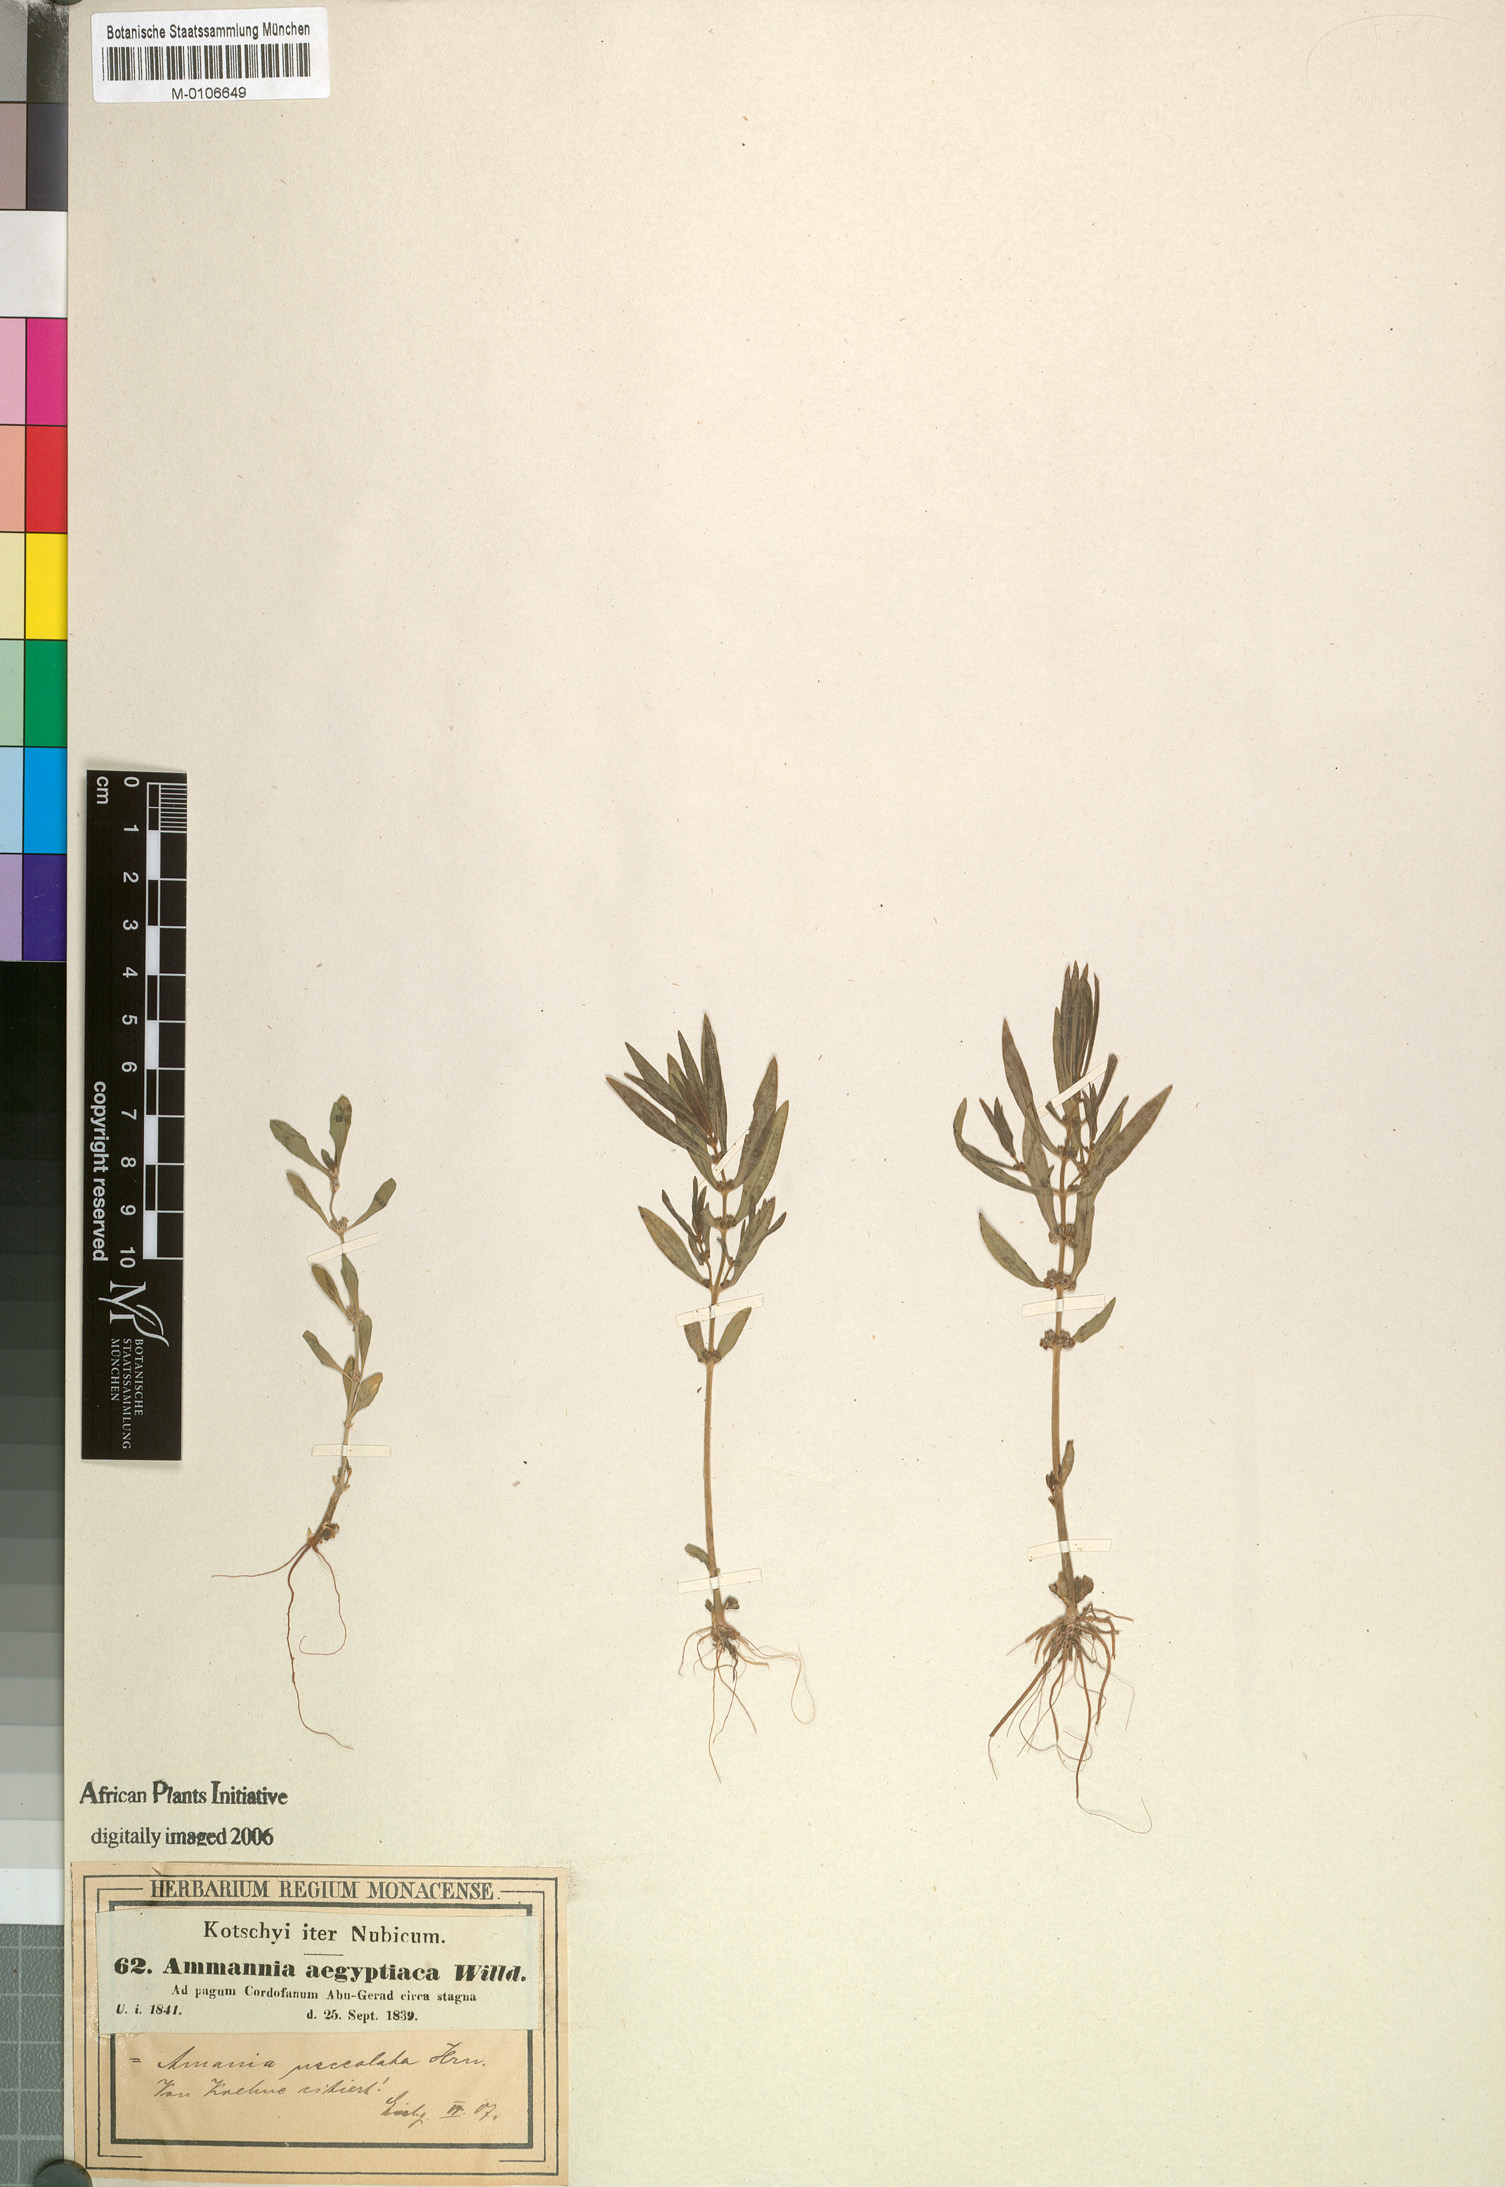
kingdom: Plantae
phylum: Tracheophyta
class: Magnoliopsida
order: Myrtales
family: Lythraceae
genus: Ammannia
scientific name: Ammannia urceolata
